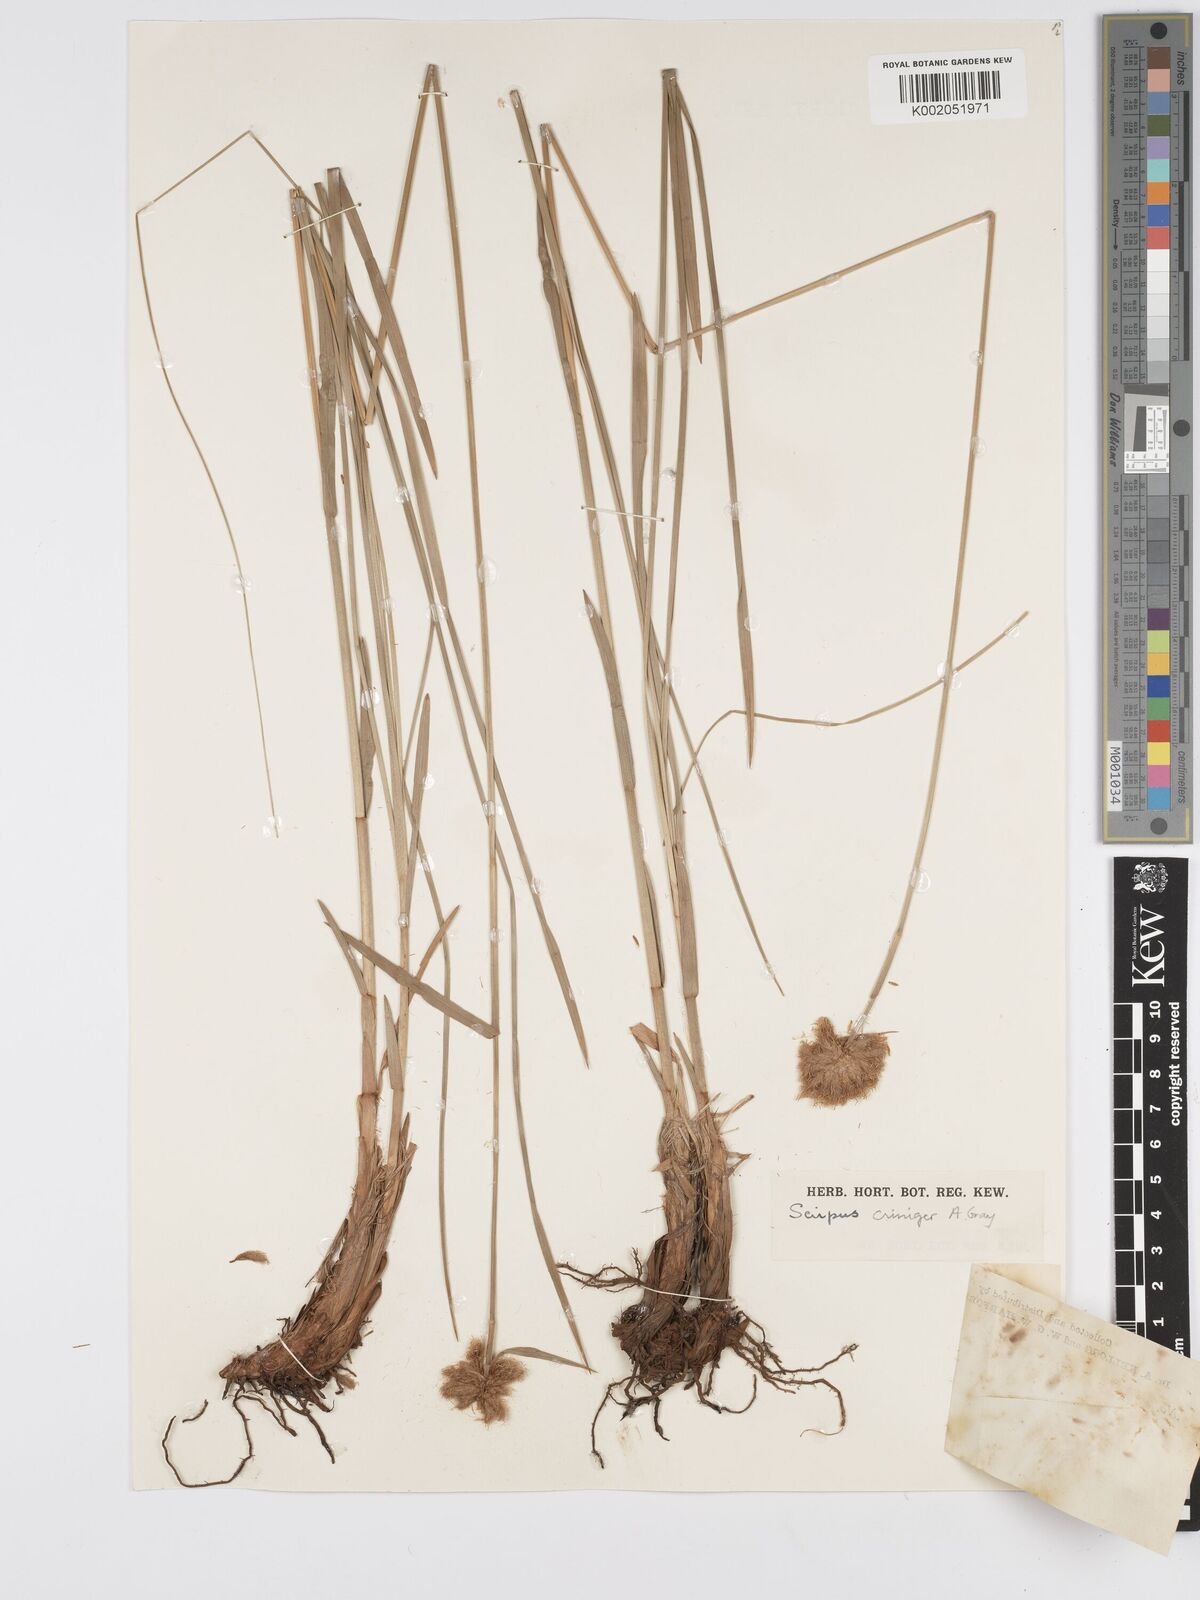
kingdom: Plantae
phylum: Tracheophyta
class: Liliopsida
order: Poales
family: Cyperaceae
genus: Calliscirpus
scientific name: Calliscirpus criniger
